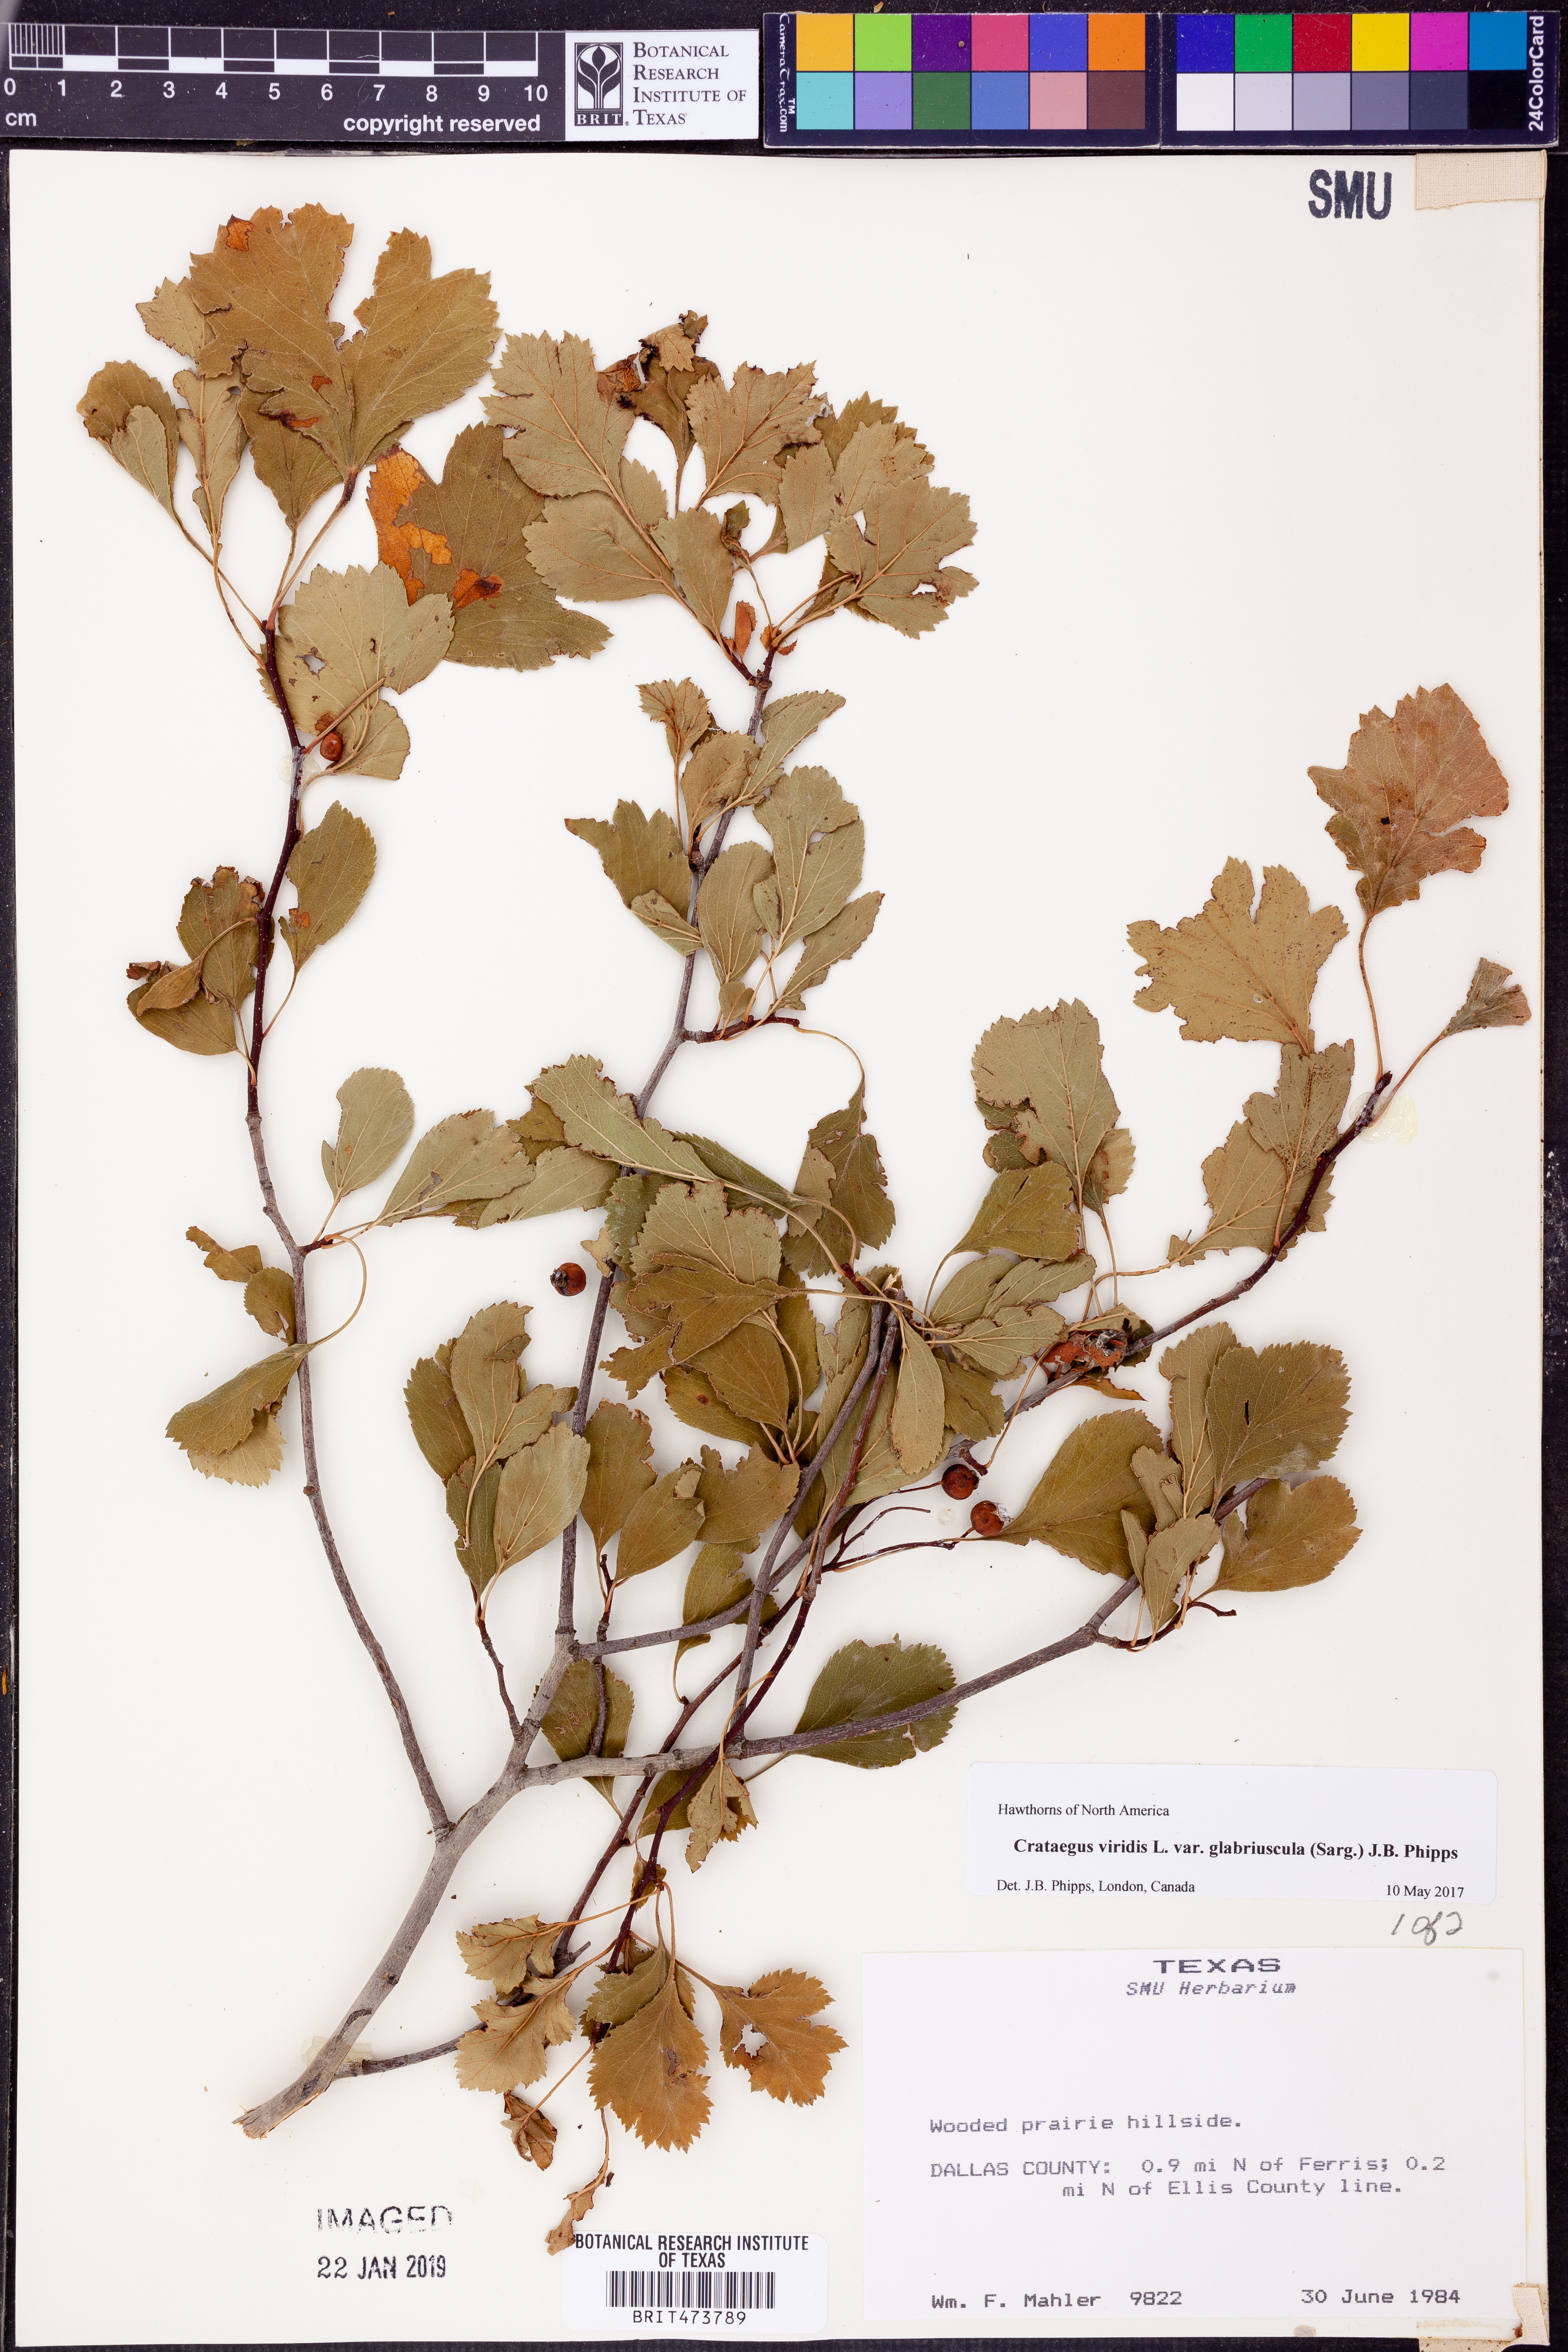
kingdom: Plantae
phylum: Tracheophyta
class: Magnoliopsida
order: Rosales
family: Rosaceae
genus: Crataegus
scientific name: Crataegus viridis
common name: Southernthorn
